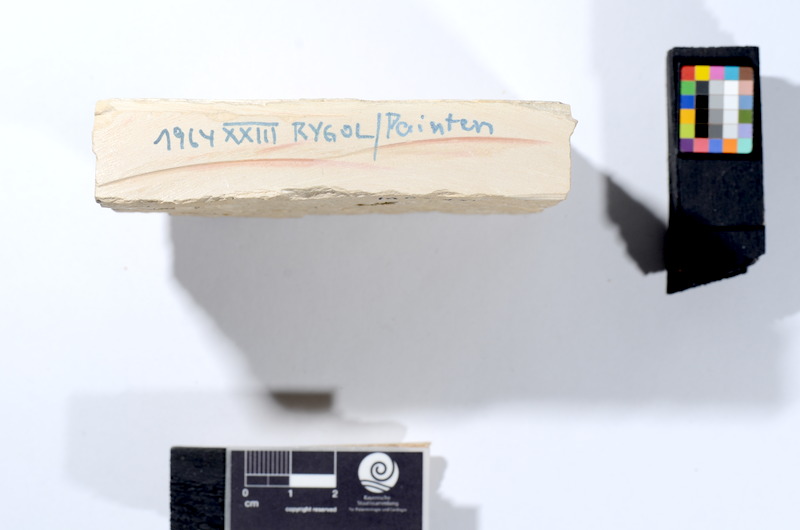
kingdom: Animalia
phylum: Chordata
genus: Thrissops
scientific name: Thrissops cephalus
